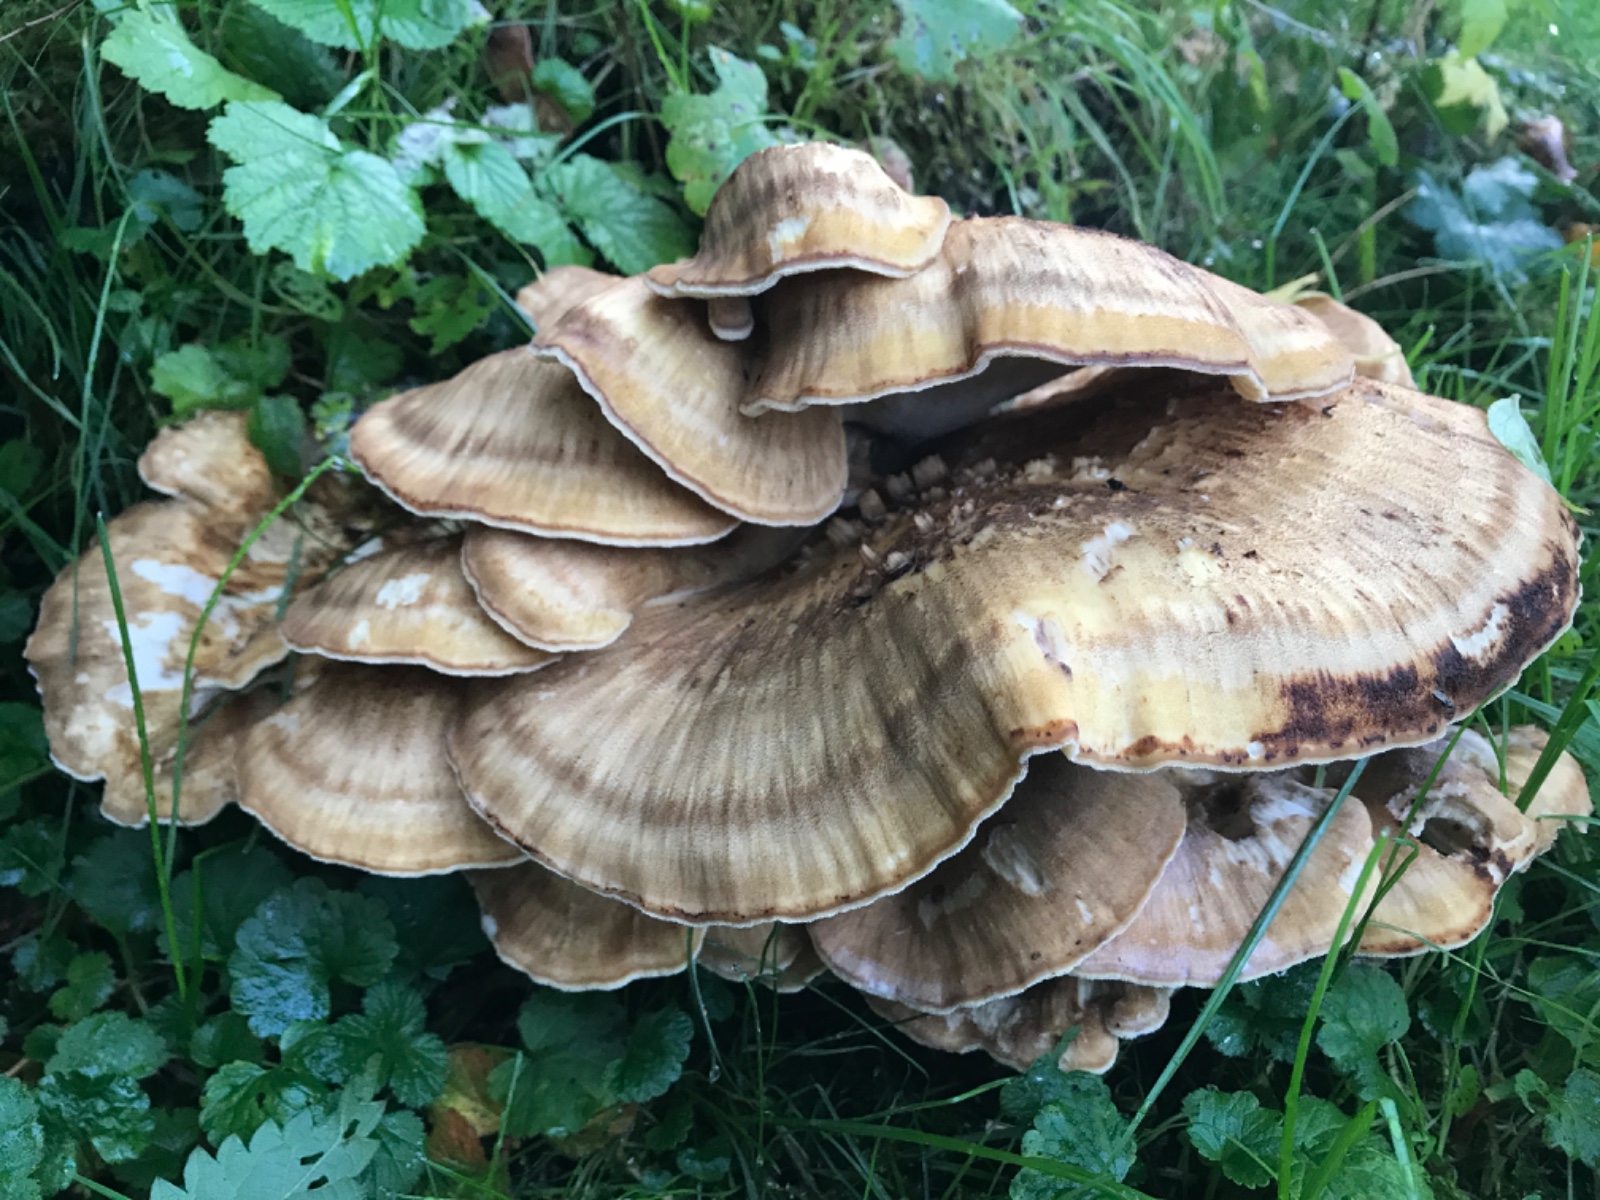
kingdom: Fungi
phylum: Basidiomycota
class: Agaricomycetes
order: Polyporales
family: Meripilaceae
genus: Meripilus
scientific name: Meripilus giganteus
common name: kæmpeporesvamp
